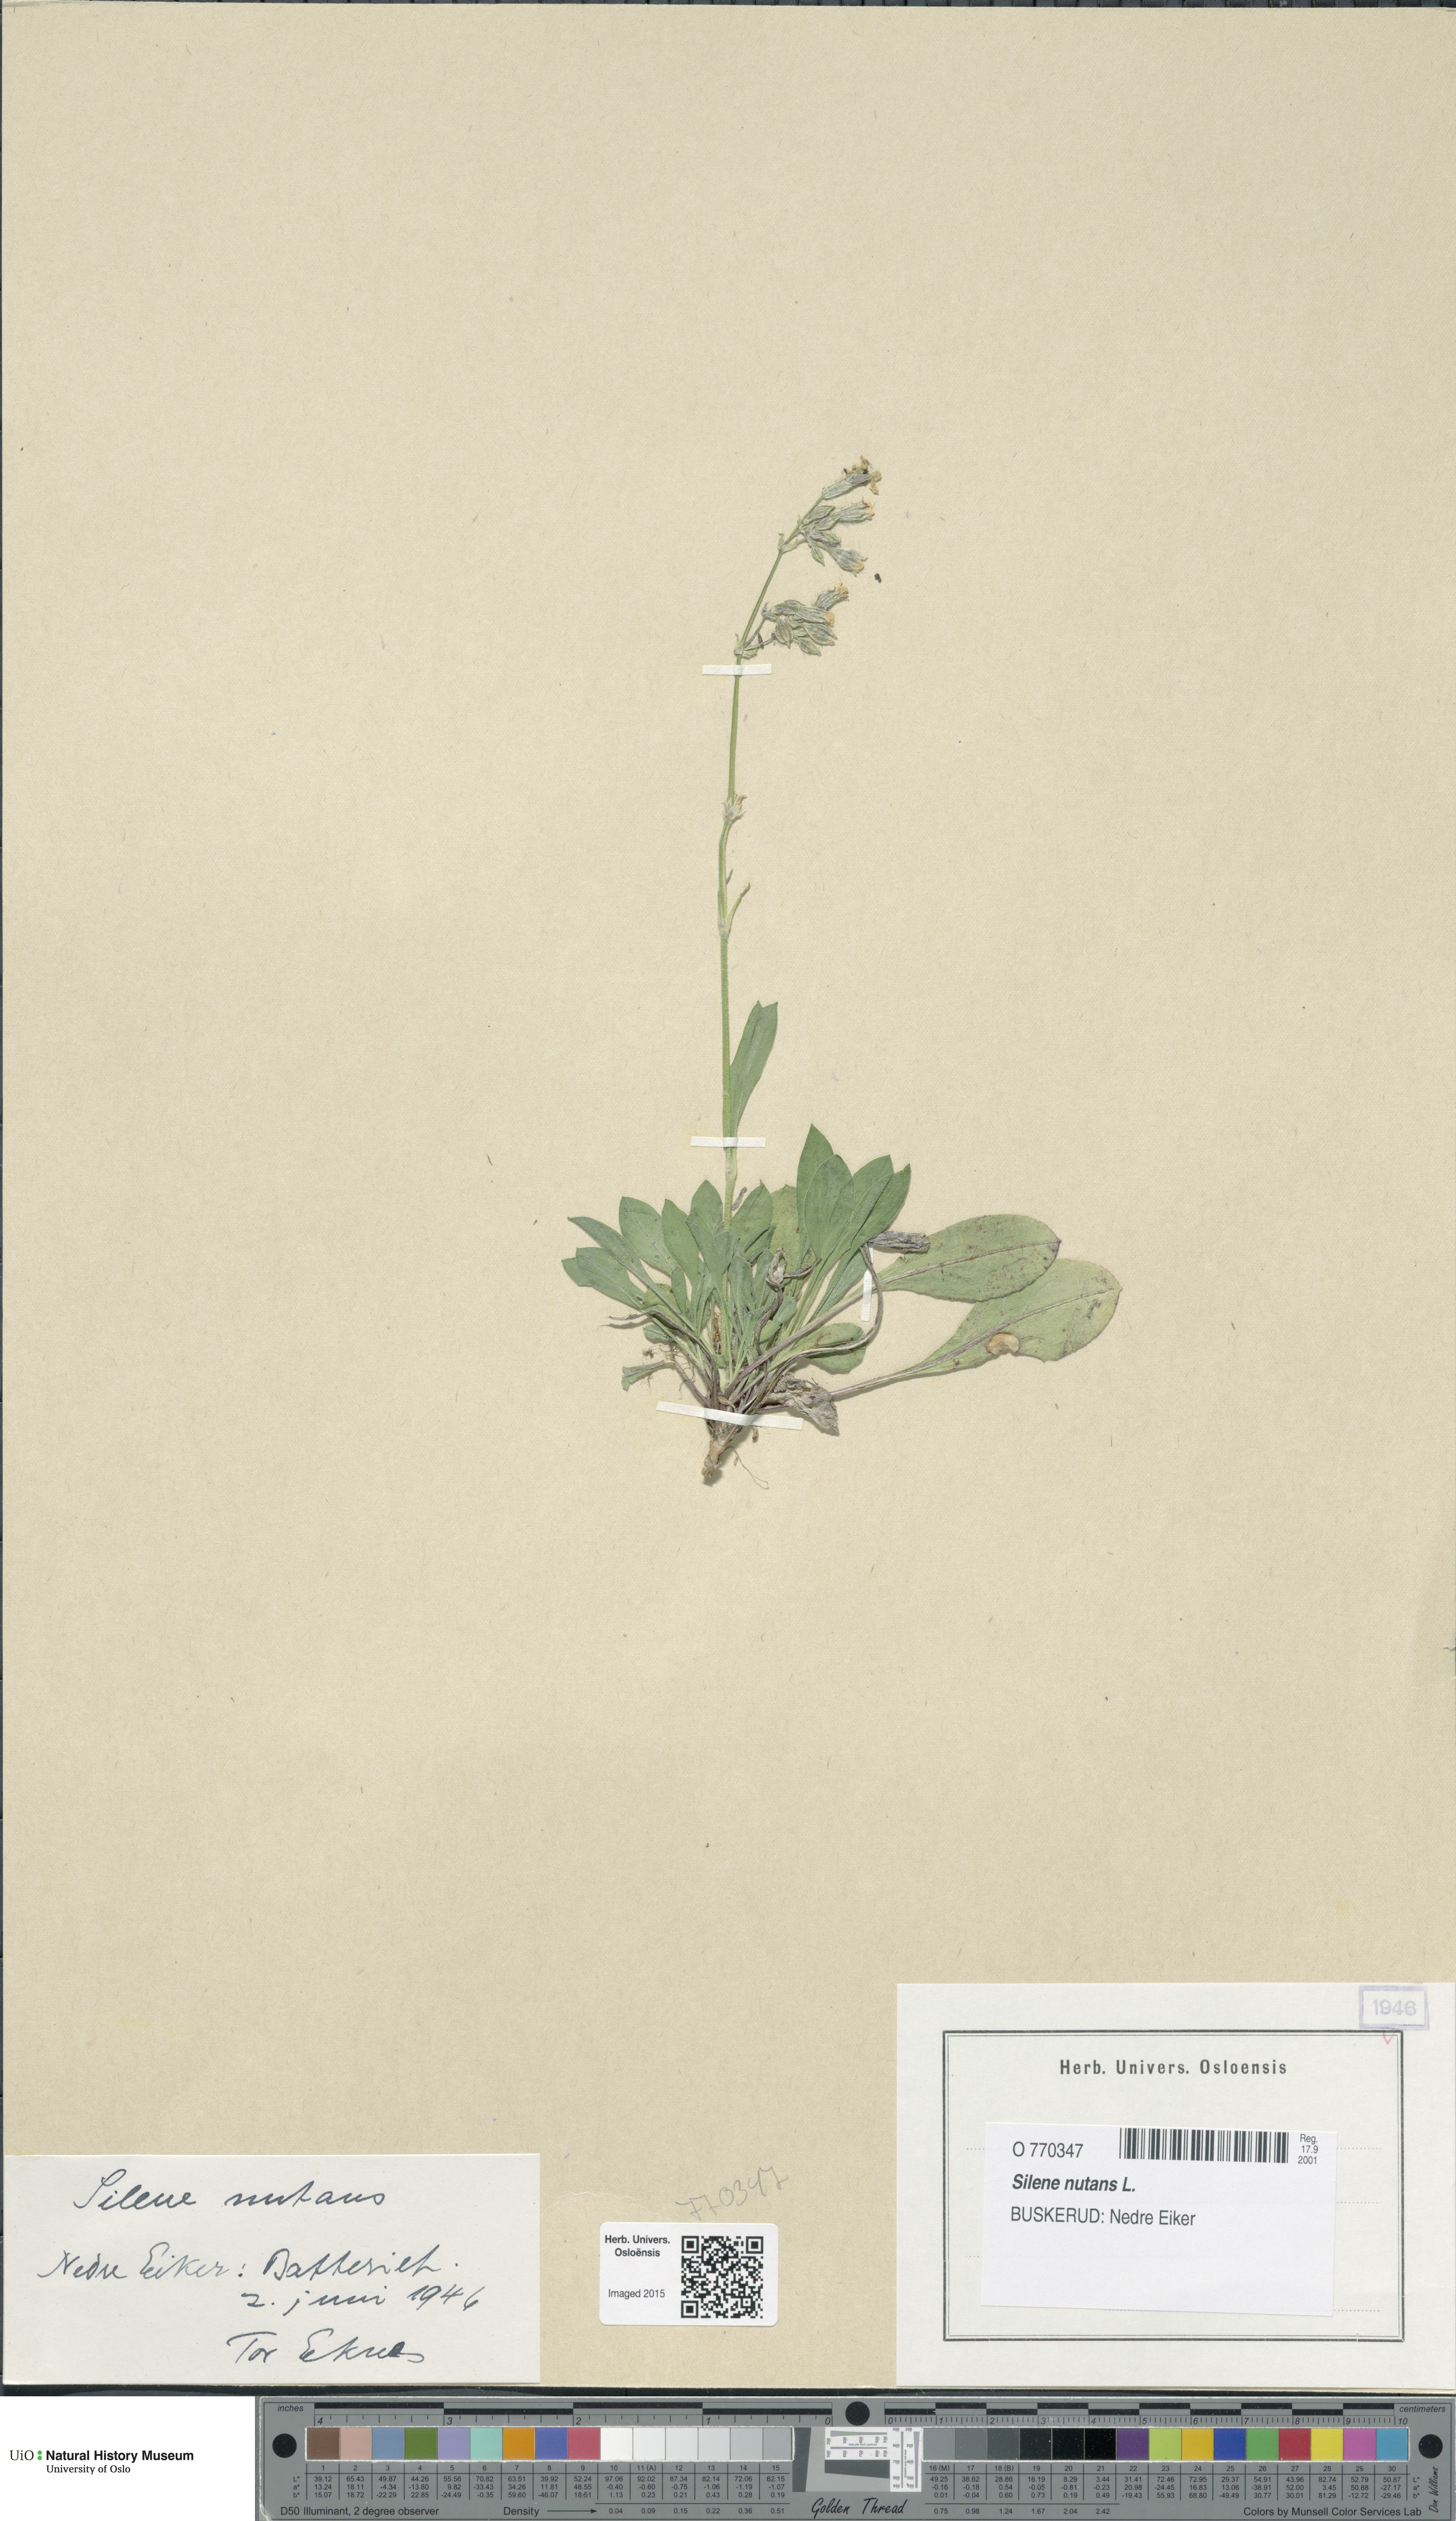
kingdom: Plantae
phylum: Tracheophyta
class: Magnoliopsida
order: Caryophyllales
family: Caryophyllaceae
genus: Silene
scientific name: Silene nutans
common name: Nottingham catchfly
